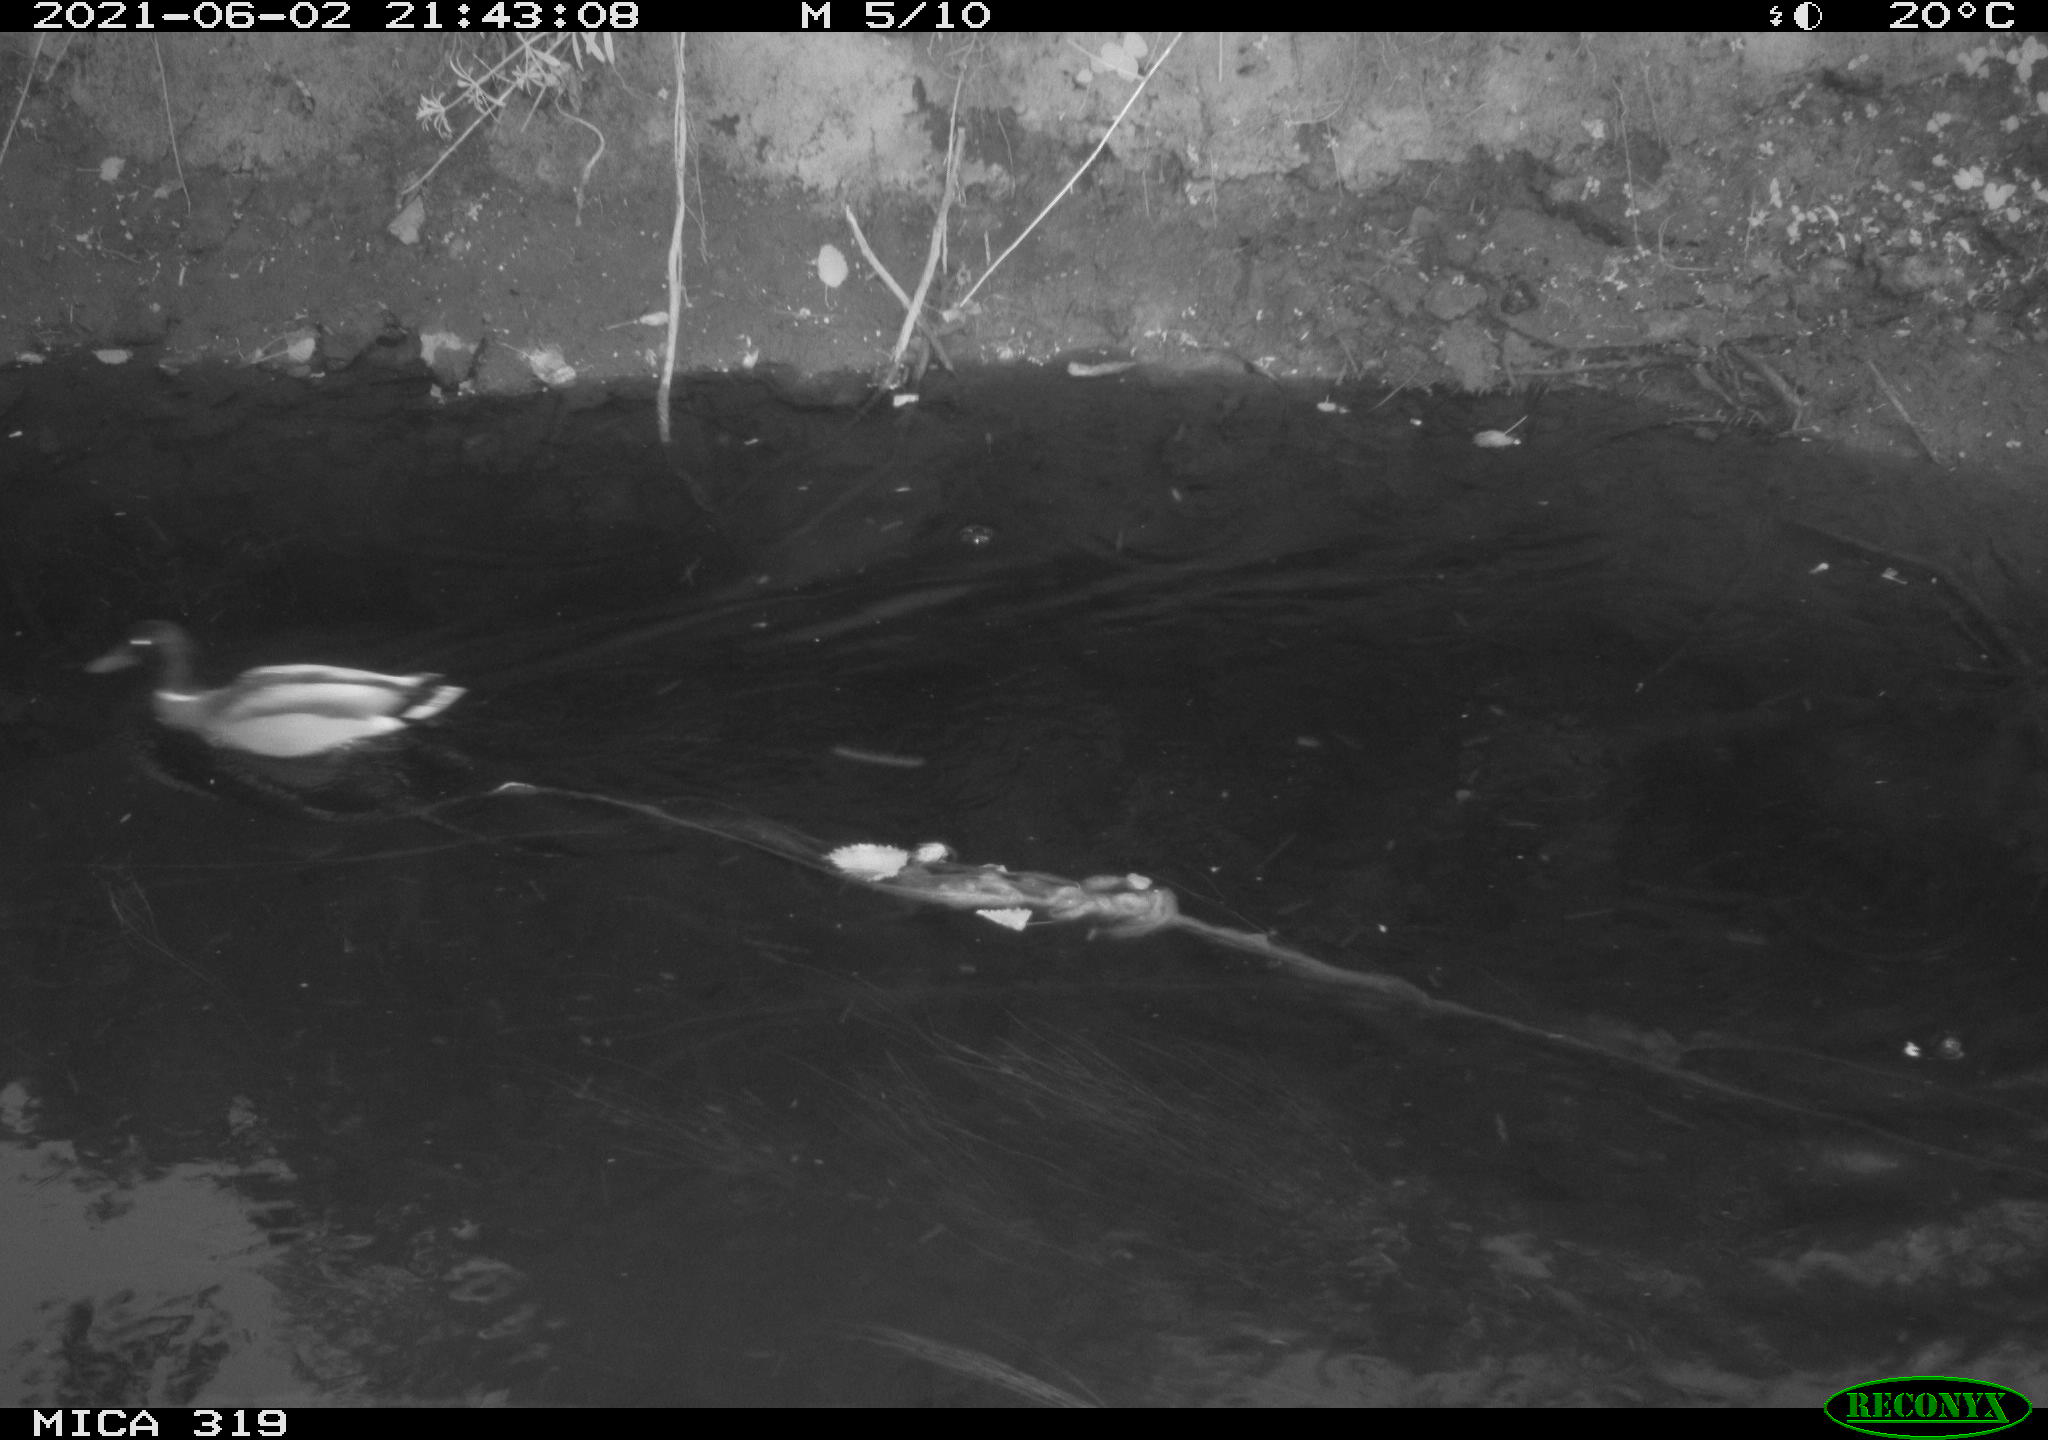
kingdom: Animalia
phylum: Chordata
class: Aves
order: Anseriformes
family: Anatidae
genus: Anas
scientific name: Anas platyrhynchos
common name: Mallard
